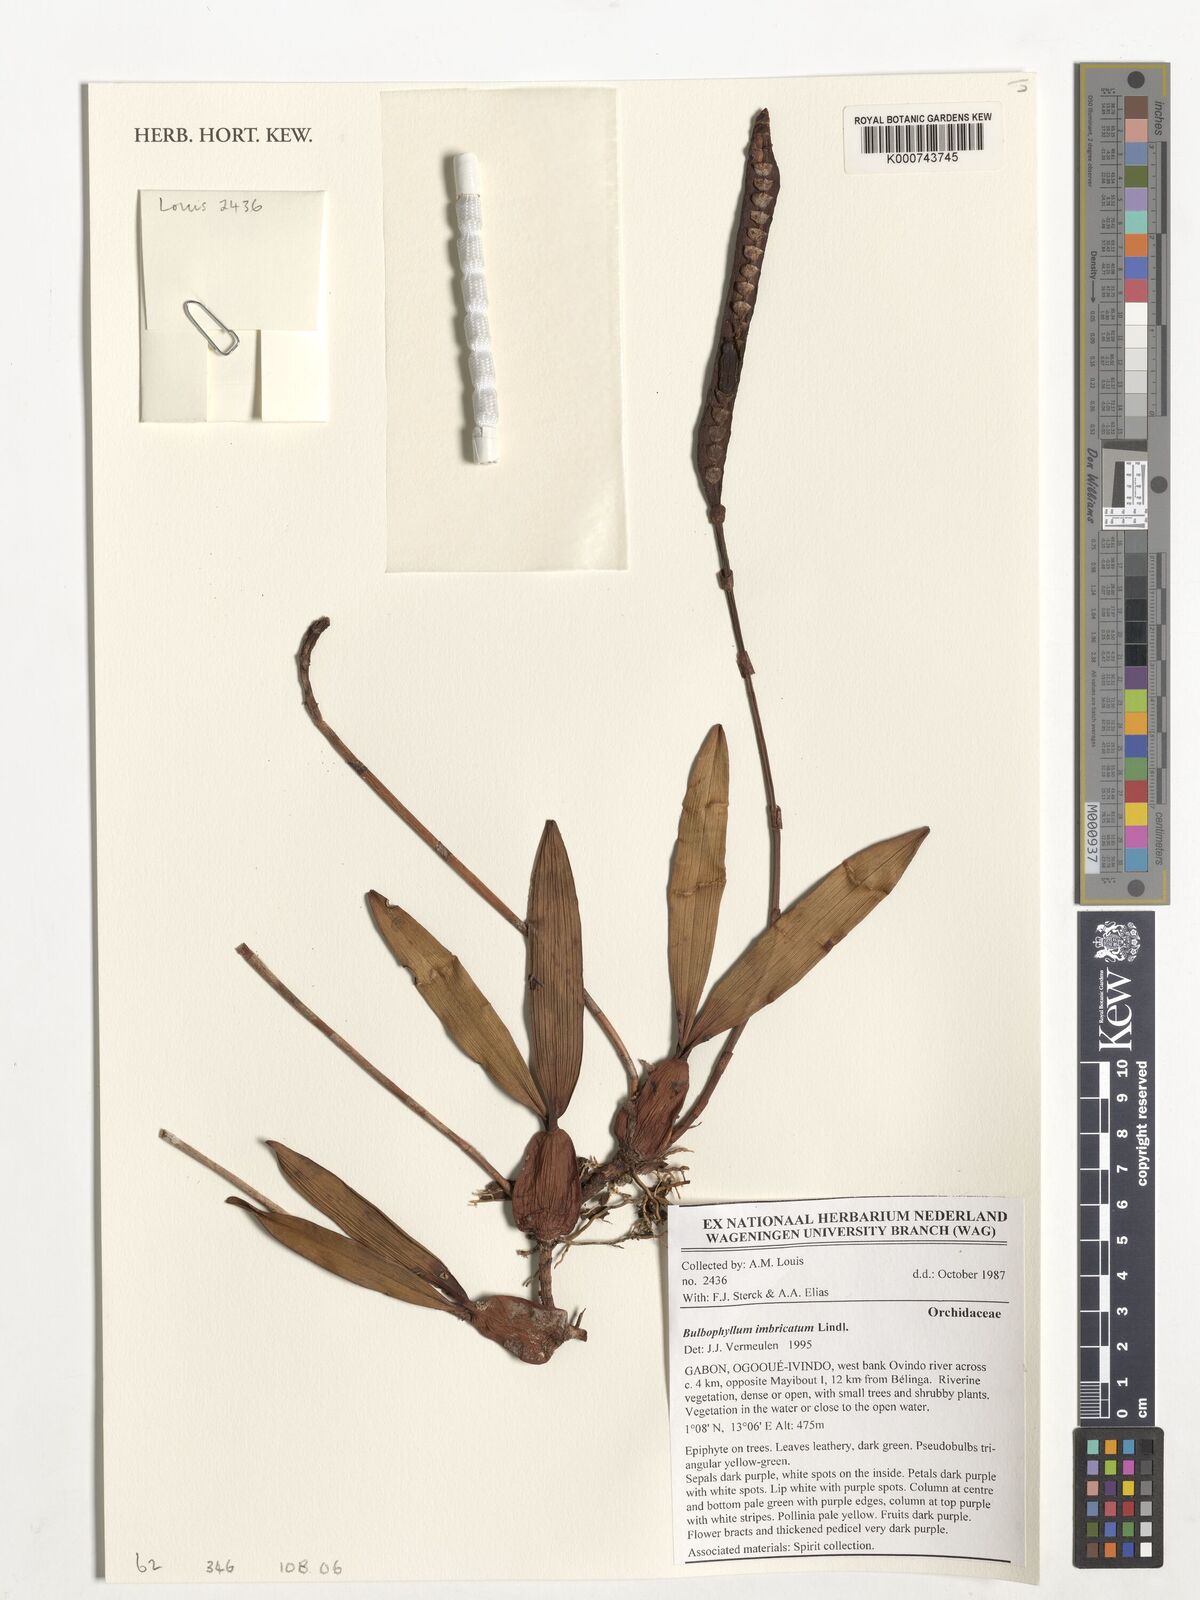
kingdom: Plantae
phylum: Tracheophyta
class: Liliopsida
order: Asparagales
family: Orchidaceae
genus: Bulbophyllum
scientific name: Bulbophyllum imbricatum
